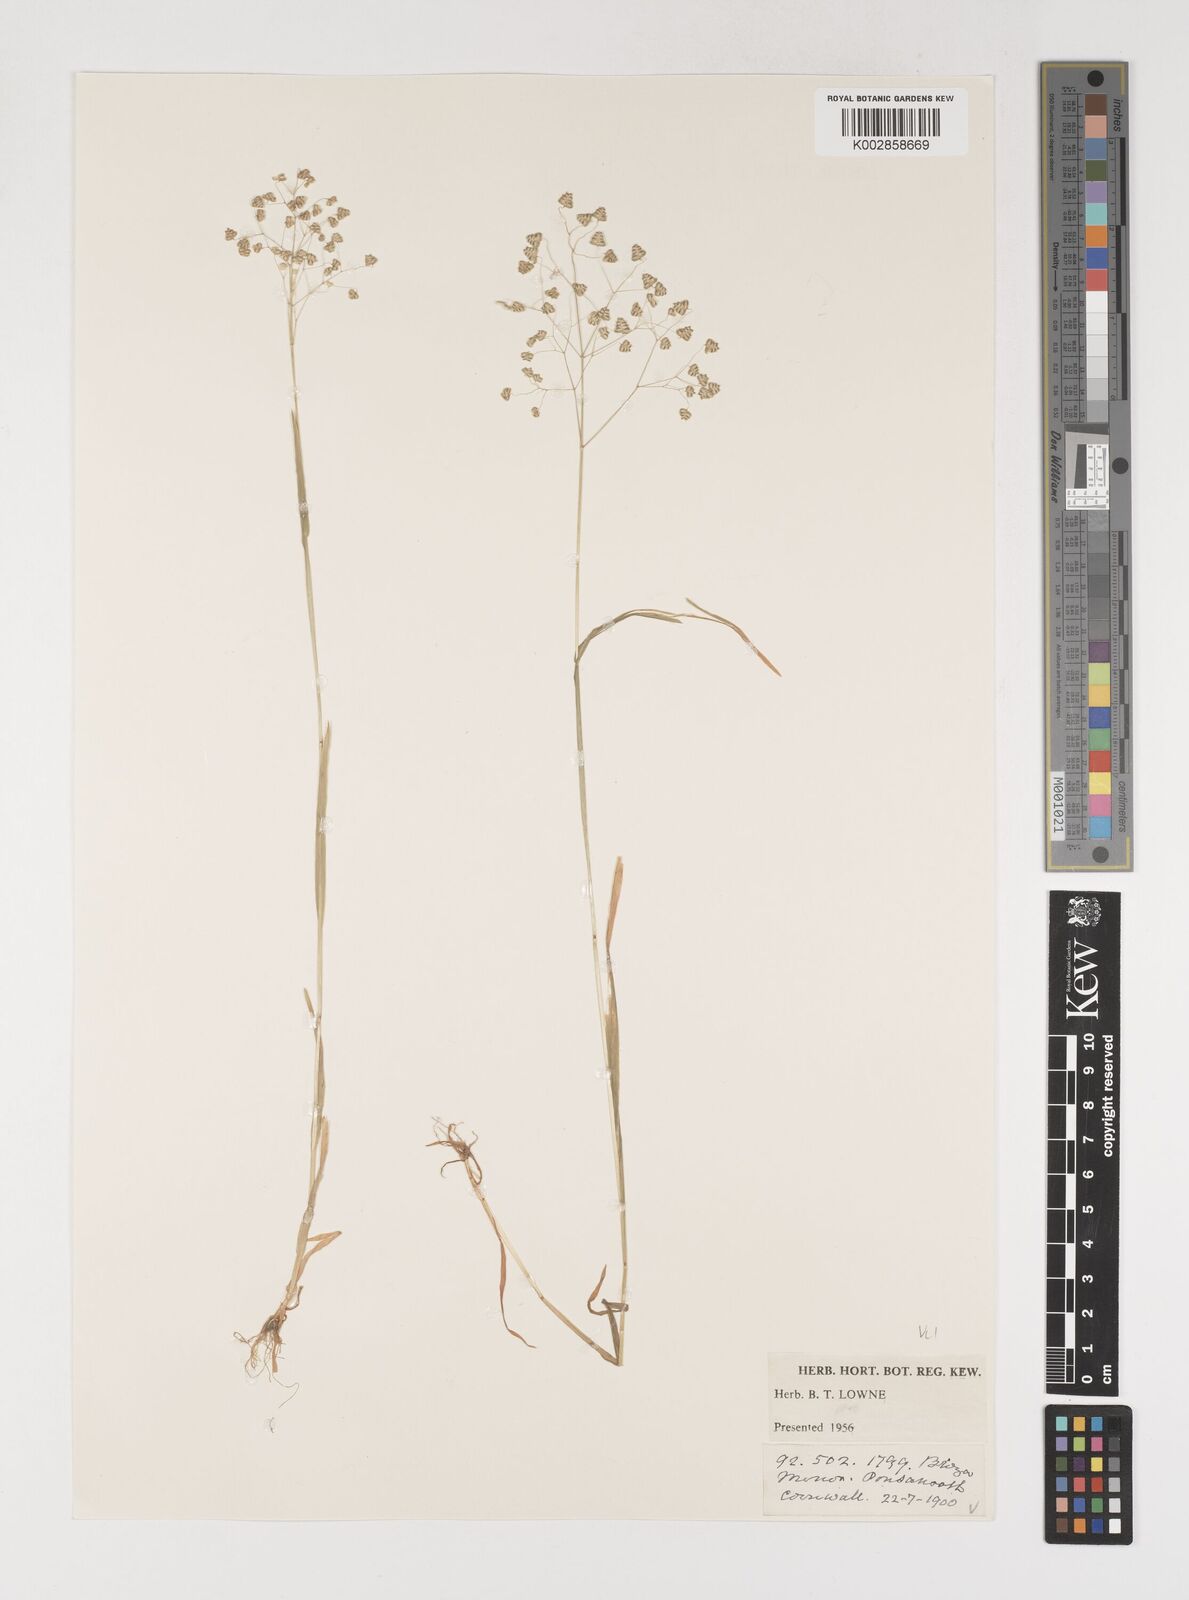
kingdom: Plantae
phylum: Tracheophyta
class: Liliopsida
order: Poales
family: Poaceae
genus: Briza
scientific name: Briza minor
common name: Lesser quaking-grass
